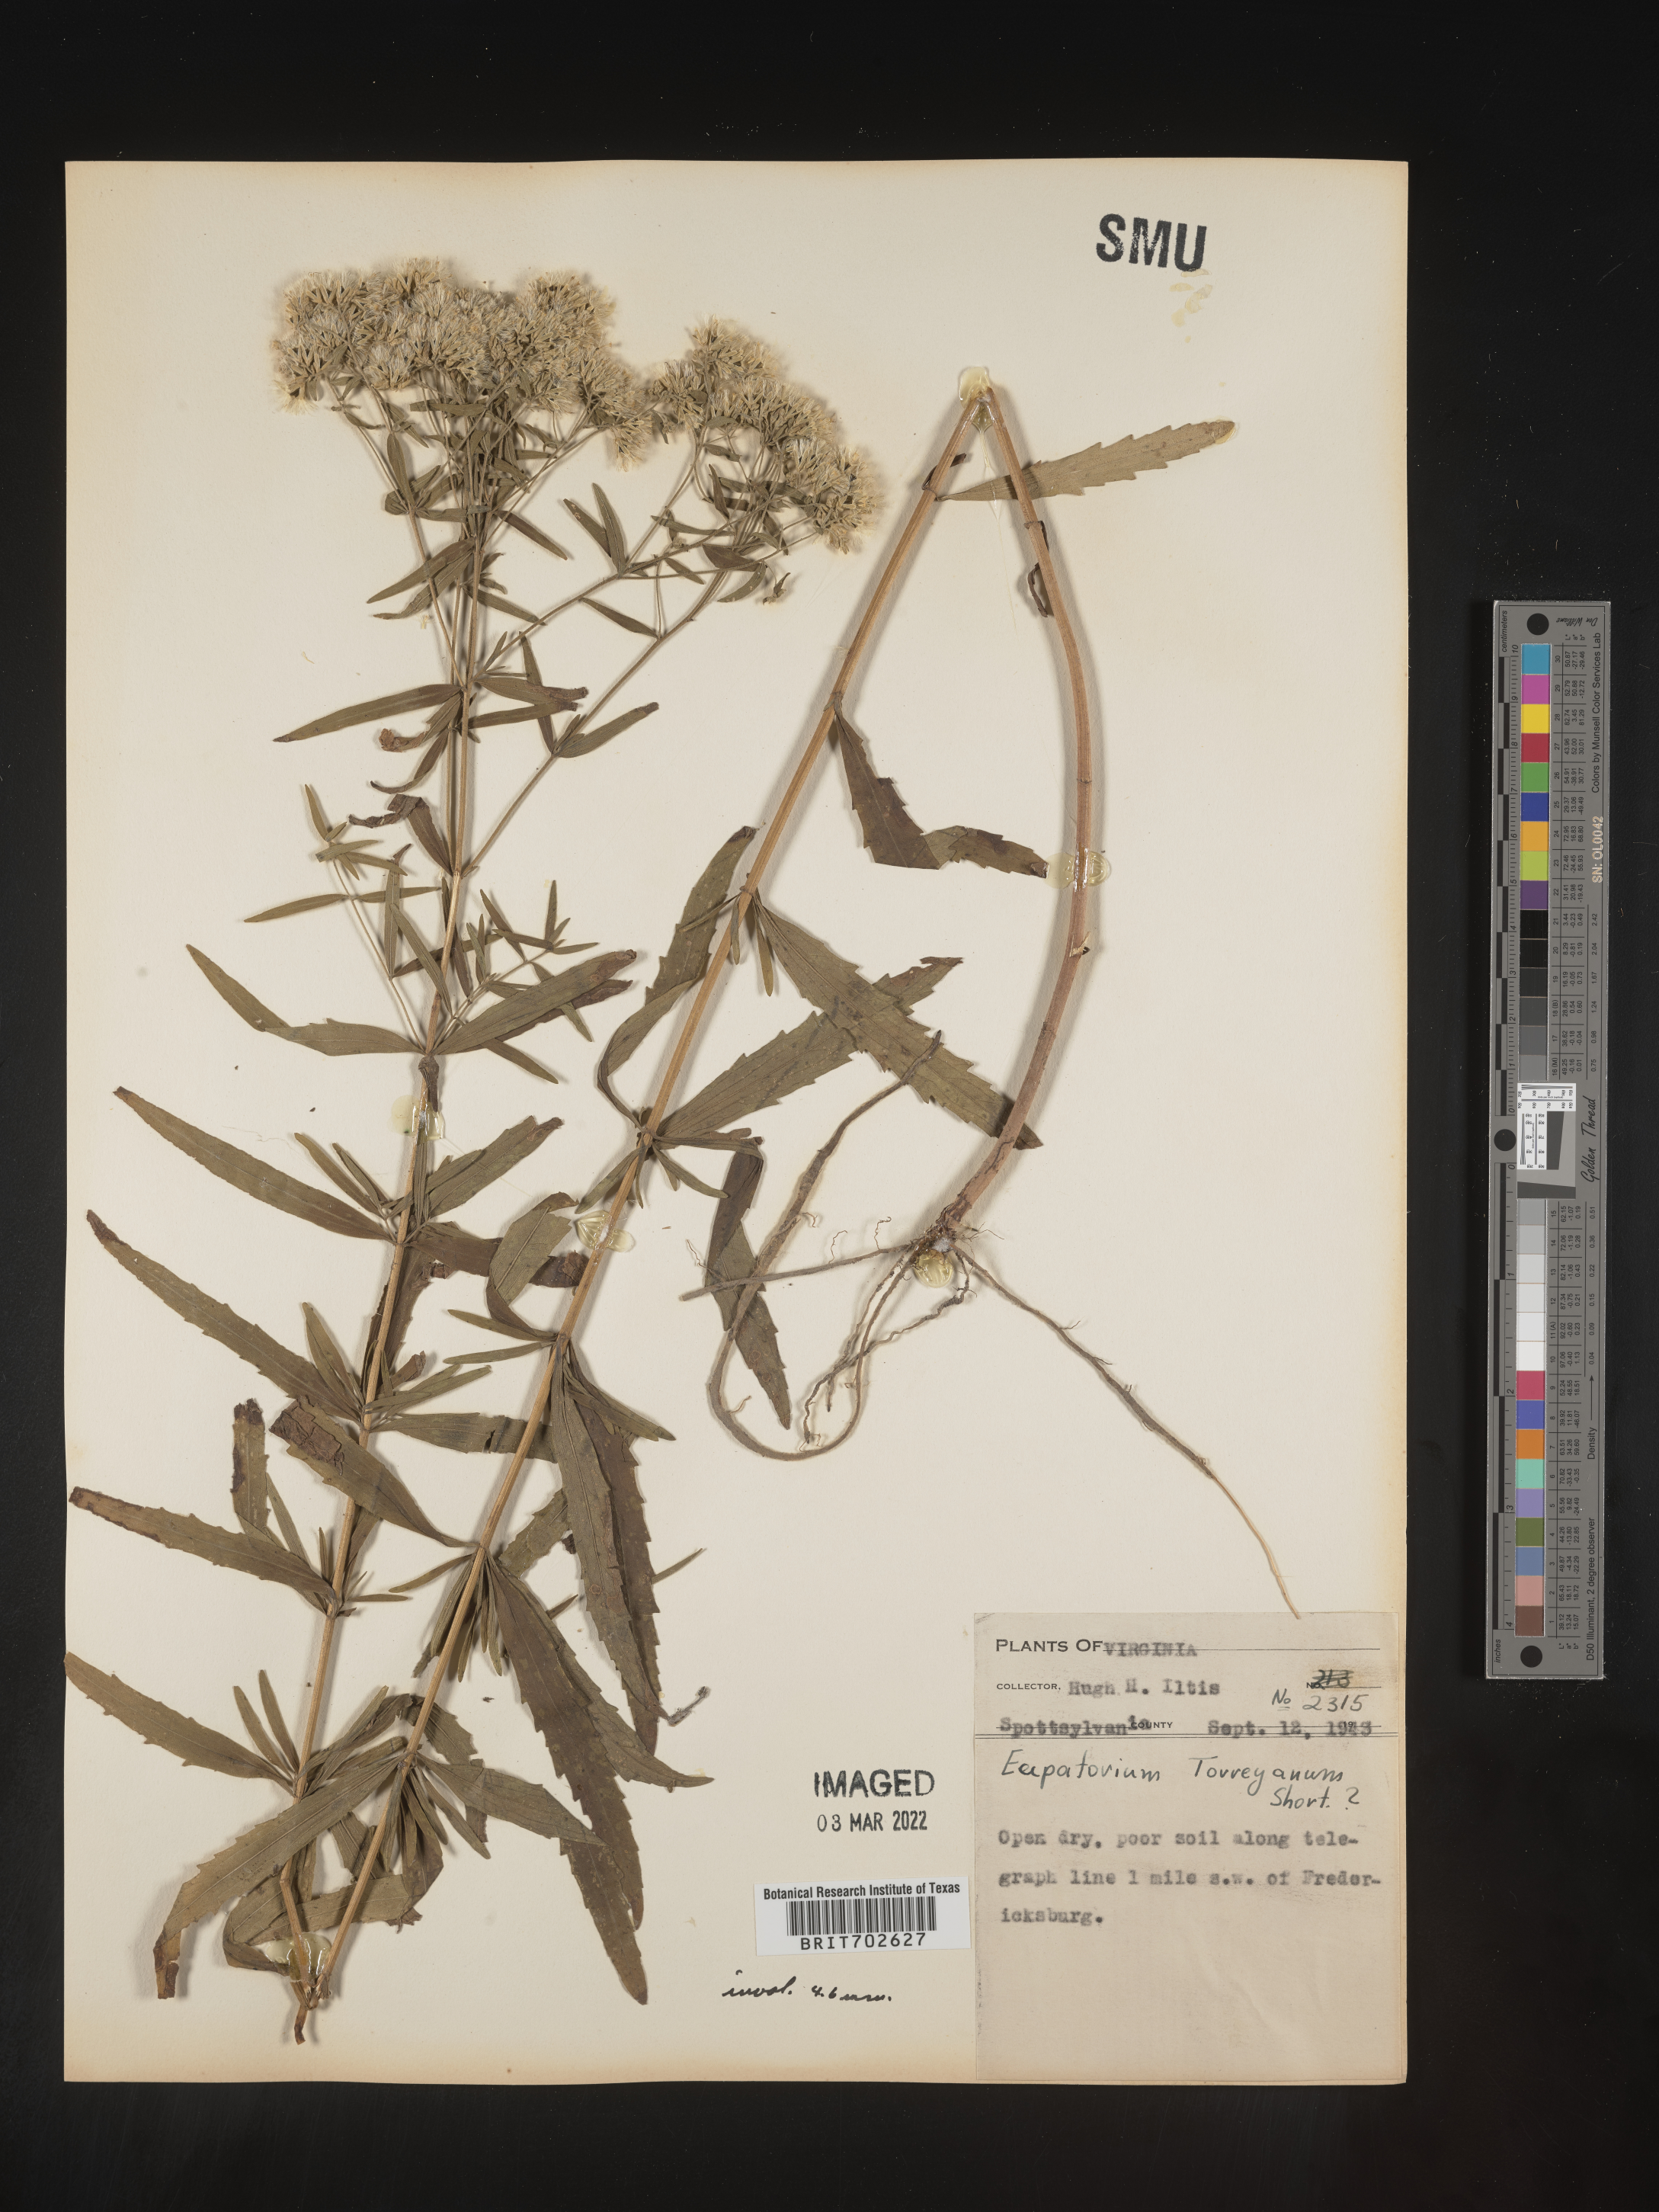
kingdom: Plantae
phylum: Tracheophyta
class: Magnoliopsida
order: Asterales
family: Asteraceae
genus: Eupatorium
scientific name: Eupatorium torreyanum
